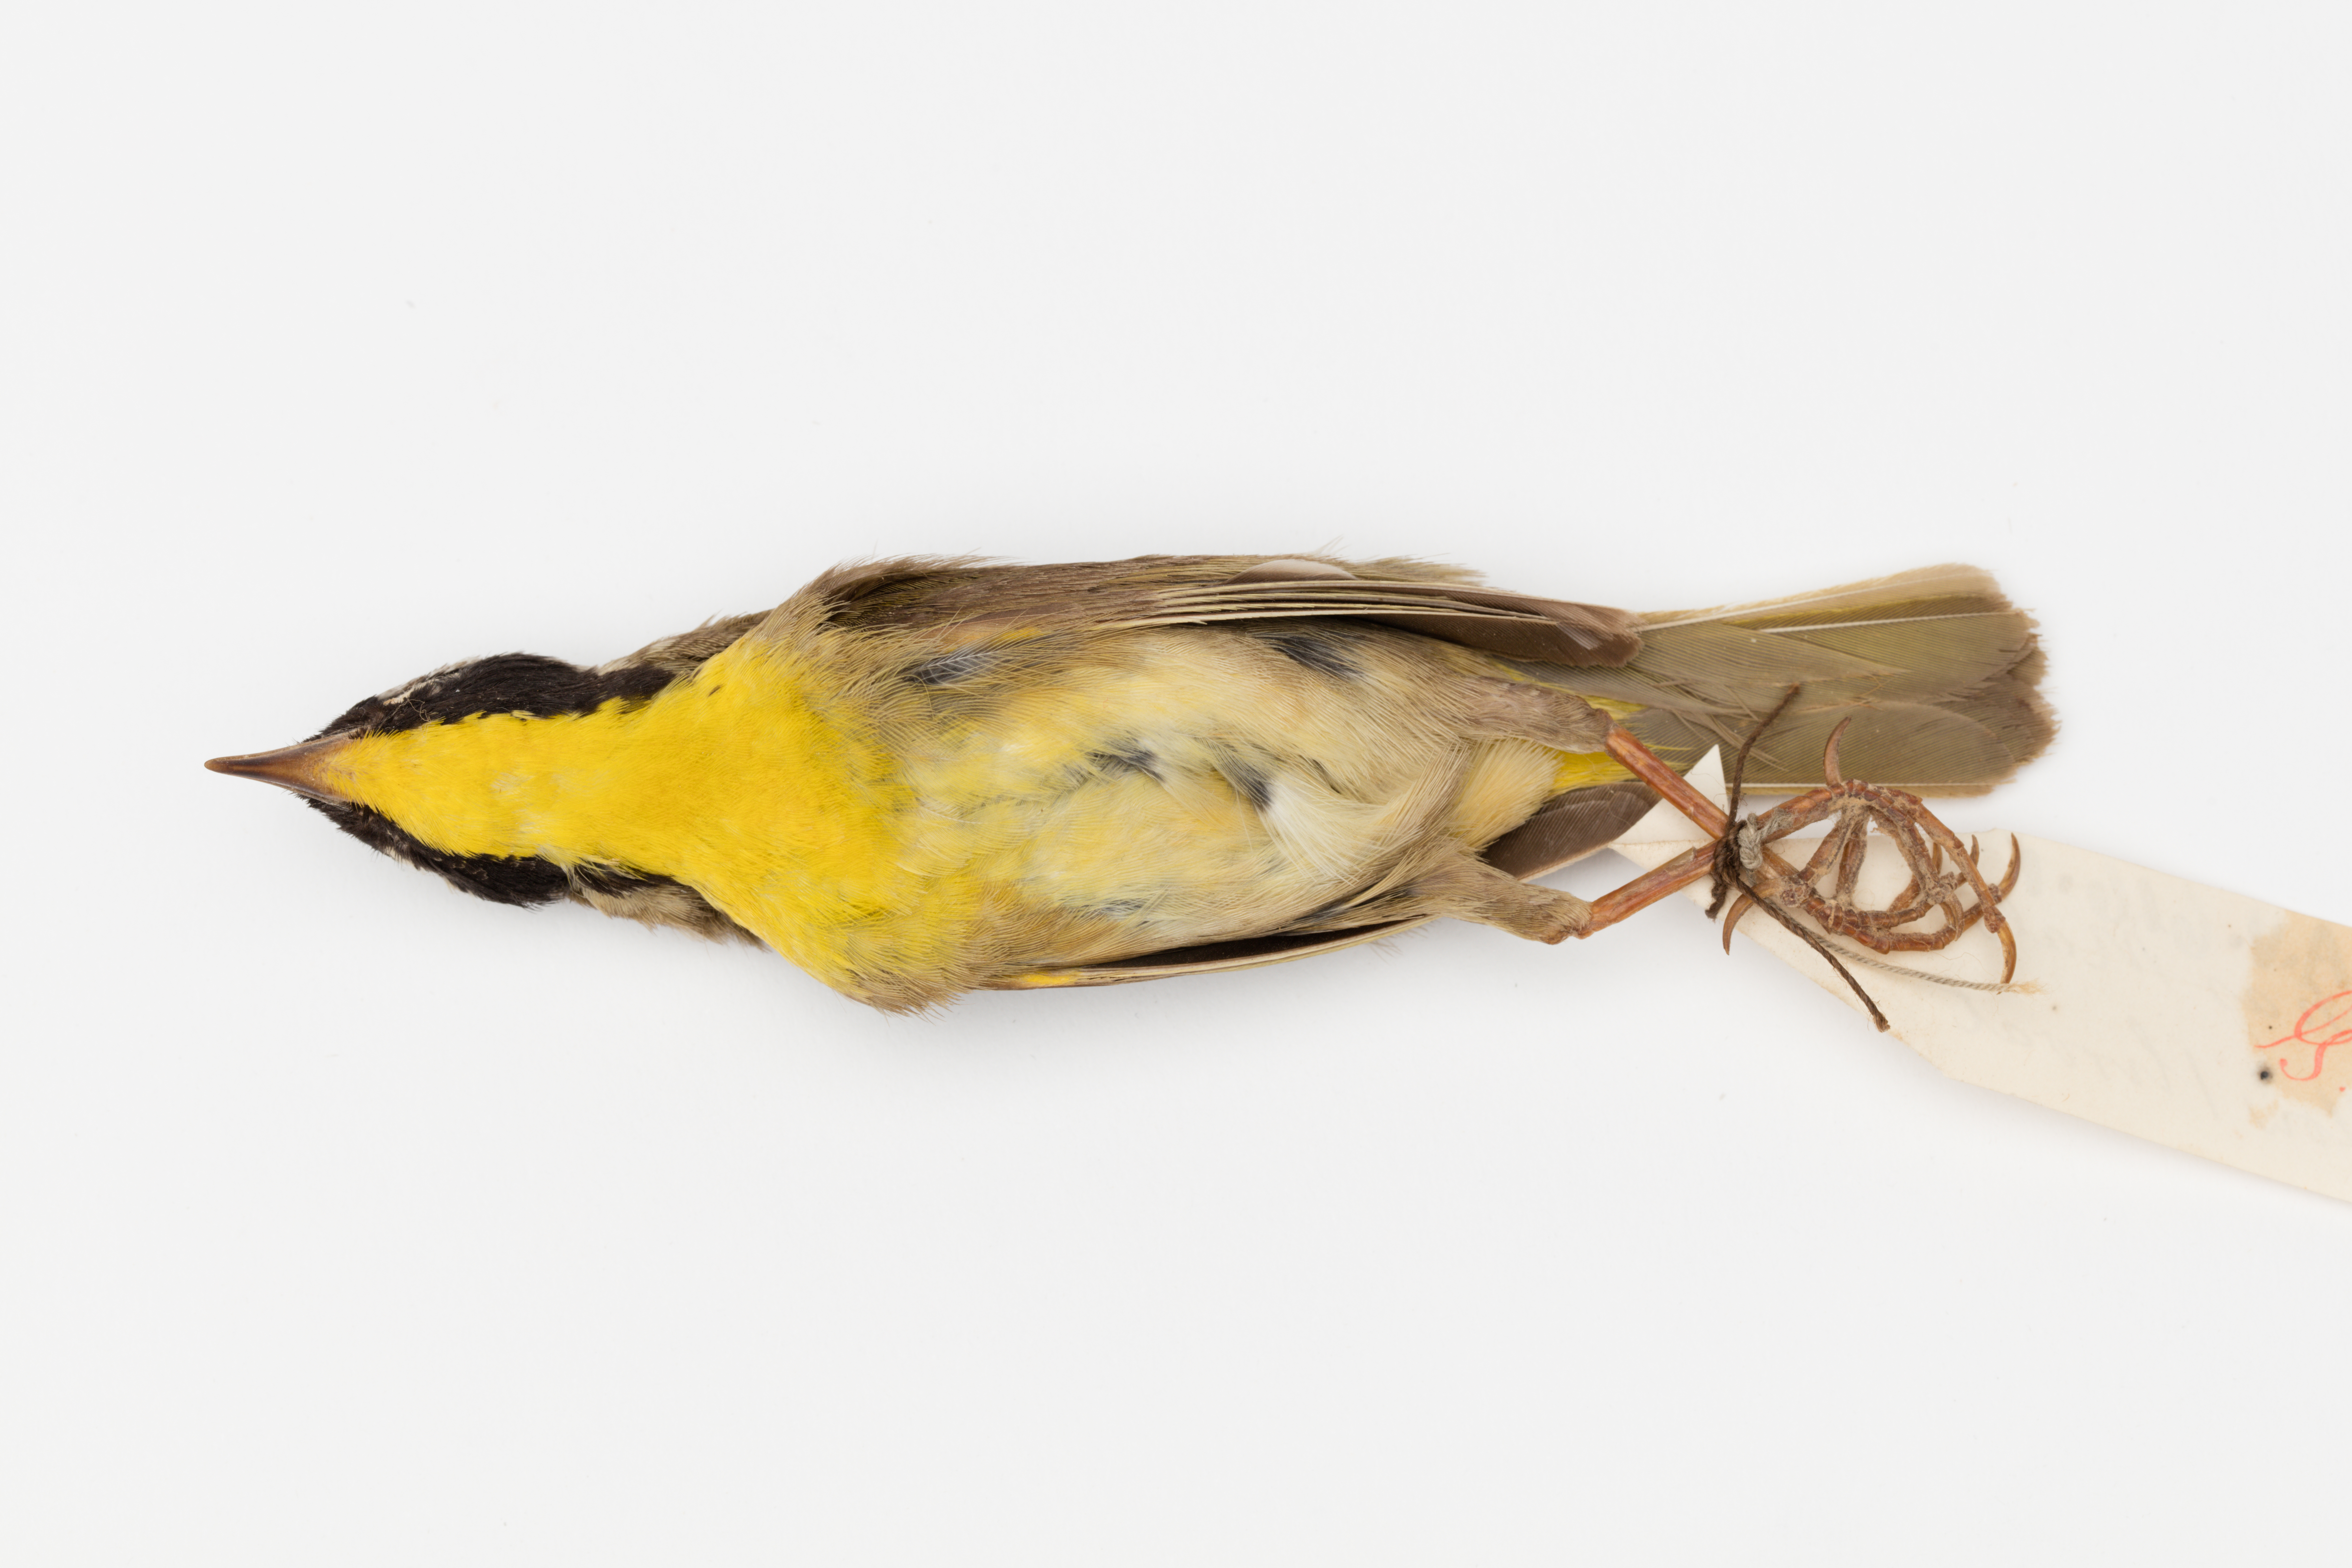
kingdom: Animalia
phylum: Chordata
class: Aves
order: Passeriformes
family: Parulidae
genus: Geothlypis
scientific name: Geothlypis trichas
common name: Common yellowthroat
